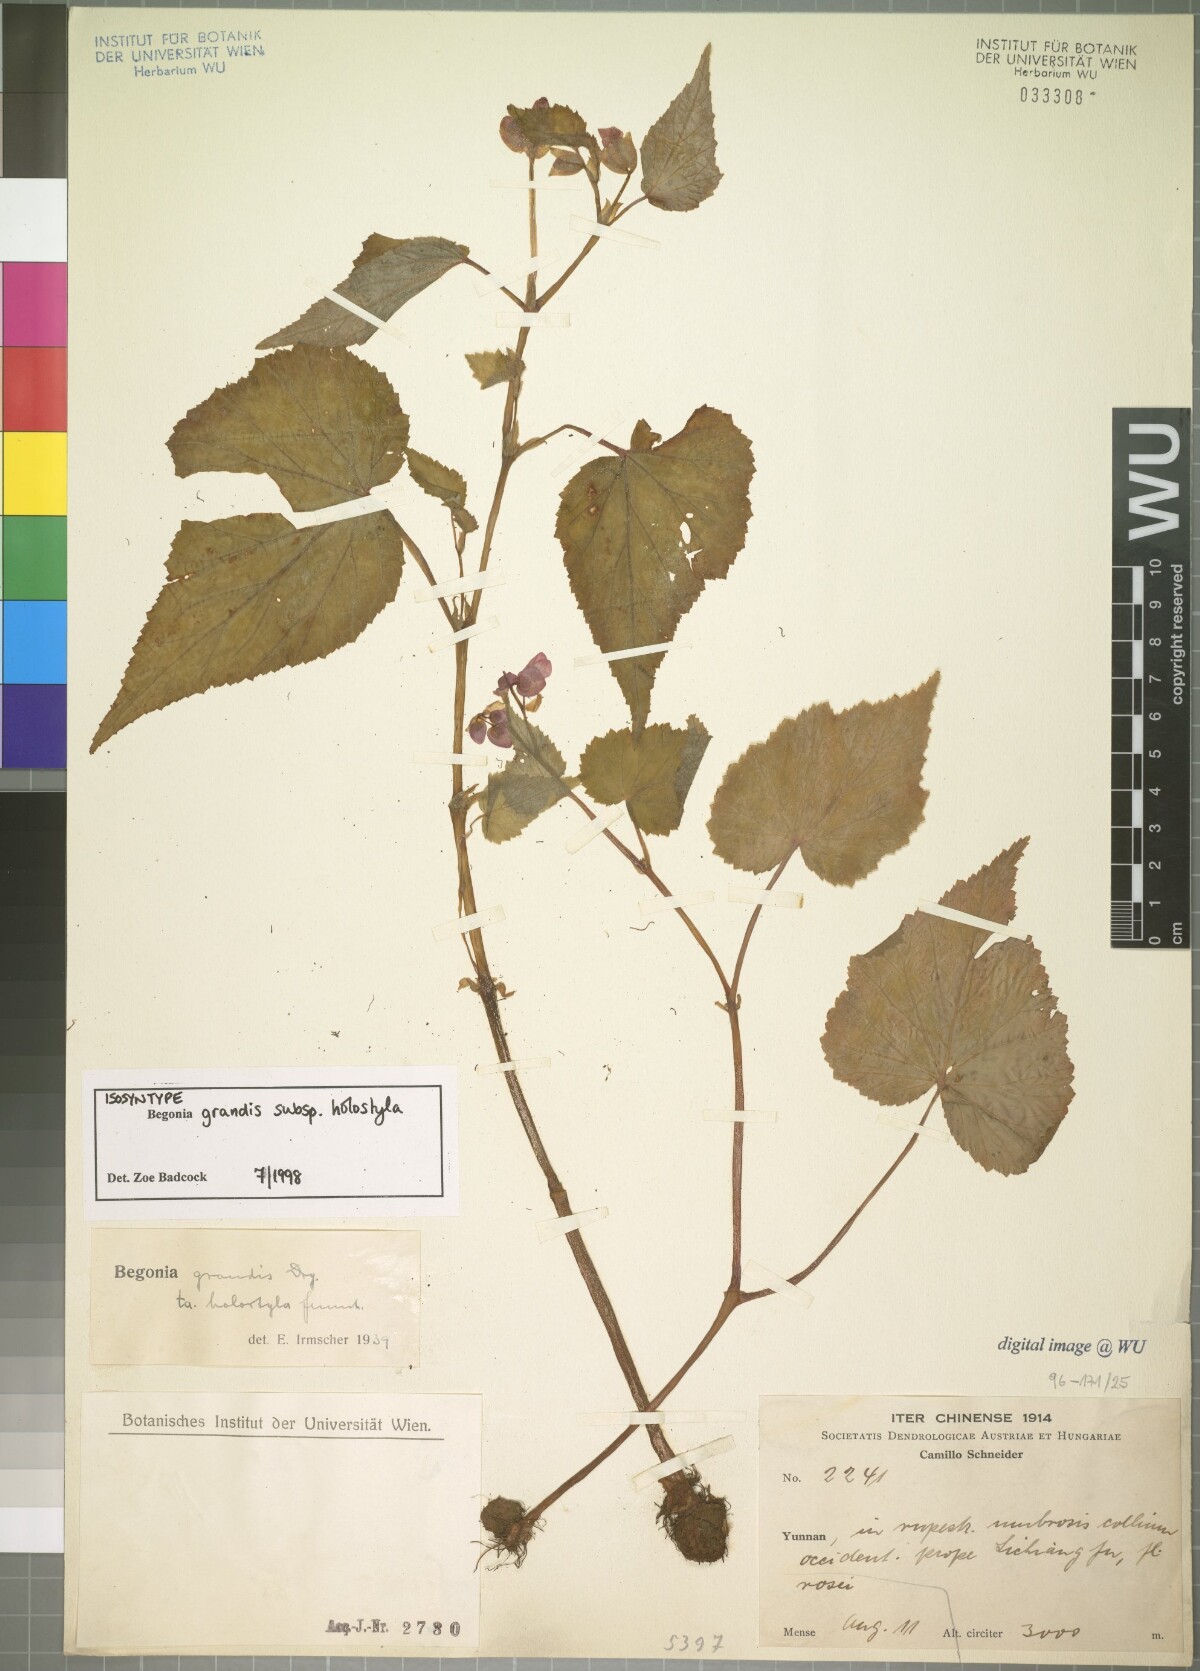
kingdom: Plantae
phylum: Tracheophyta
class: Magnoliopsida
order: Cucurbitales
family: Begoniaceae
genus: Begonia
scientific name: Begonia grandis
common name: Hardy begonia
